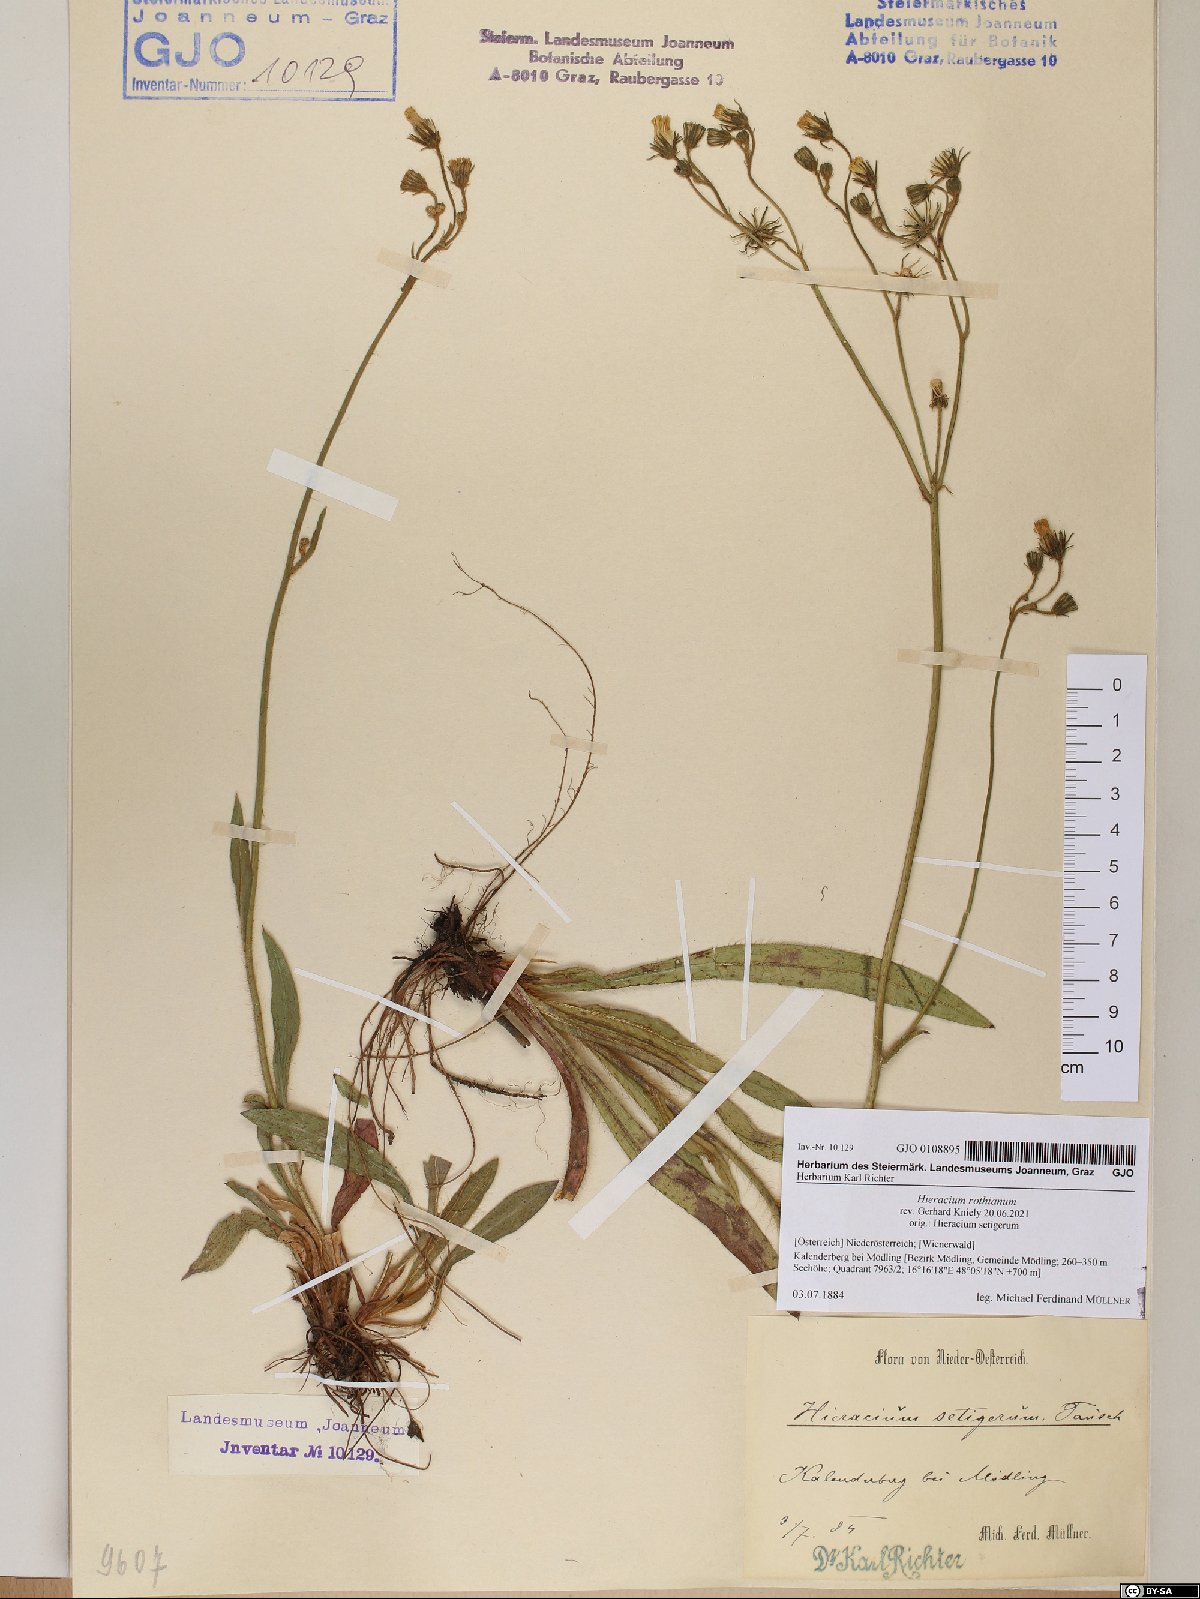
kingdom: Plantae
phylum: Tracheophyta
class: Magnoliopsida
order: Asterales
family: Asteraceae
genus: Pilosella
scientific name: Pilosella rothiana
